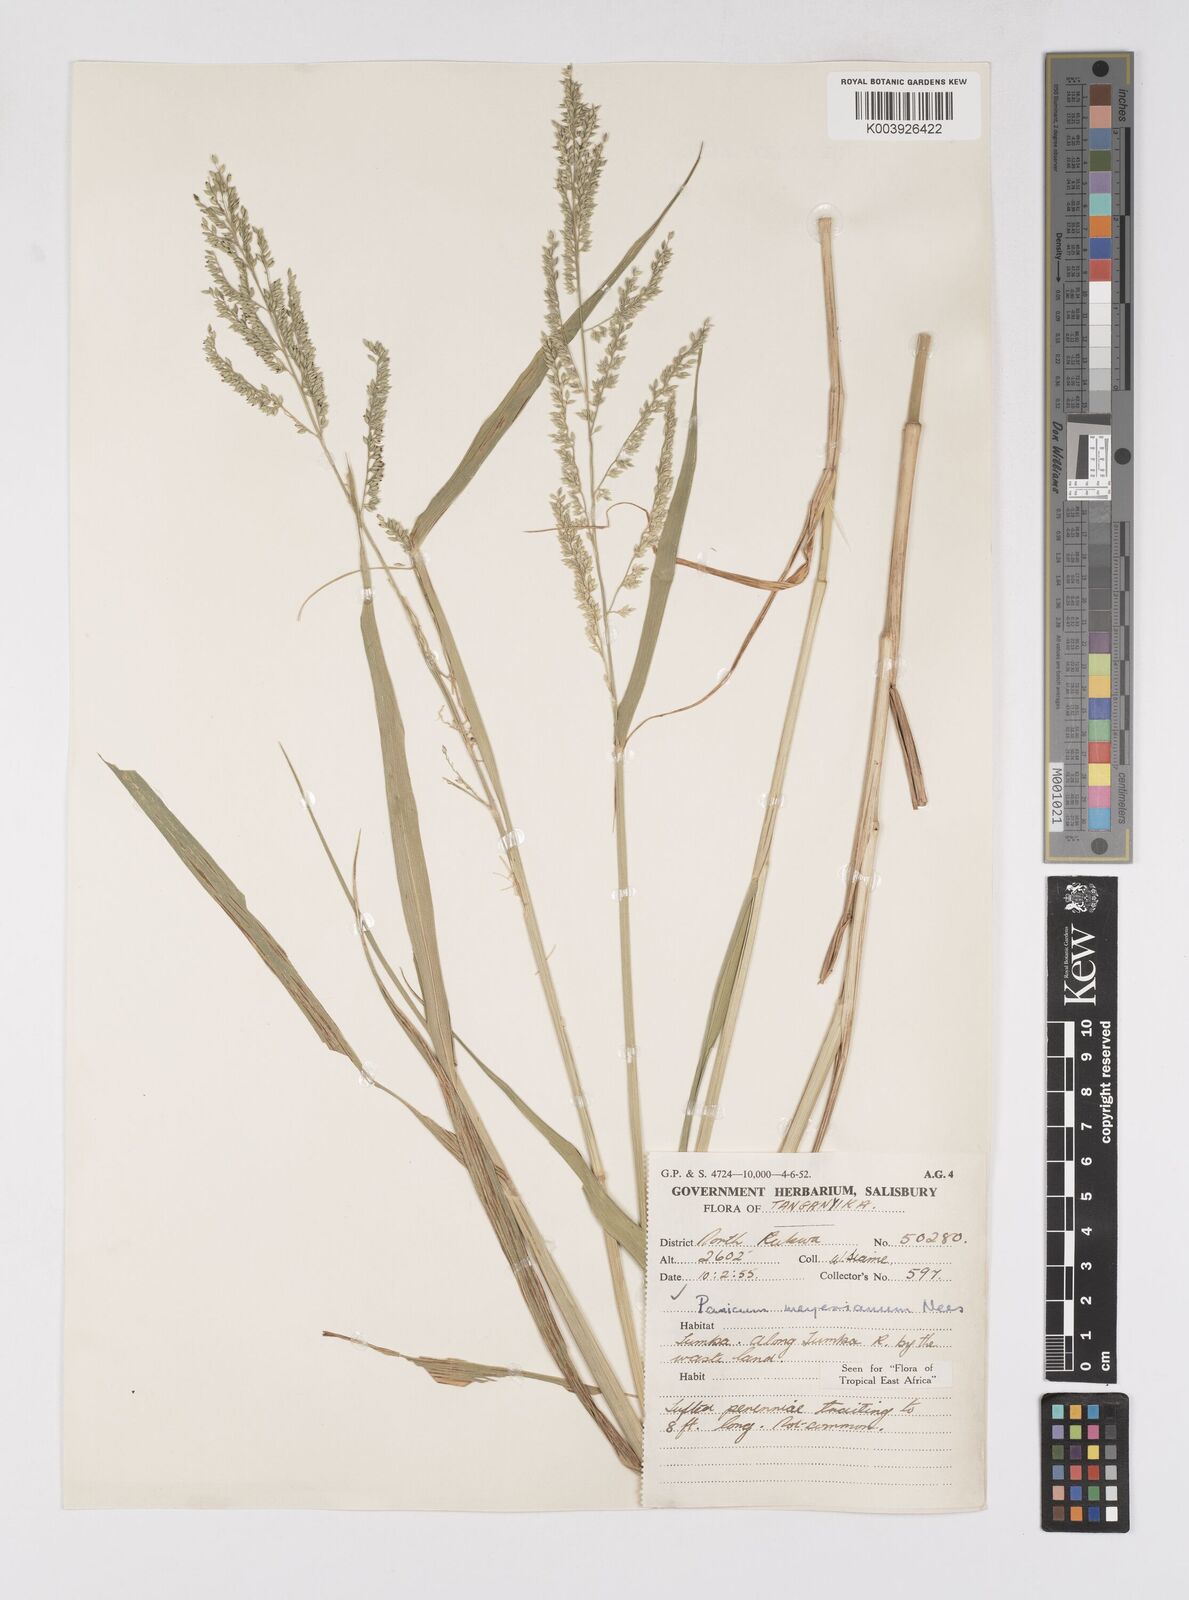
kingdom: Plantae
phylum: Tracheophyta
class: Liliopsida
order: Poales
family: Poaceae
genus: Eriochloa
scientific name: Eriochloa meyeriana
